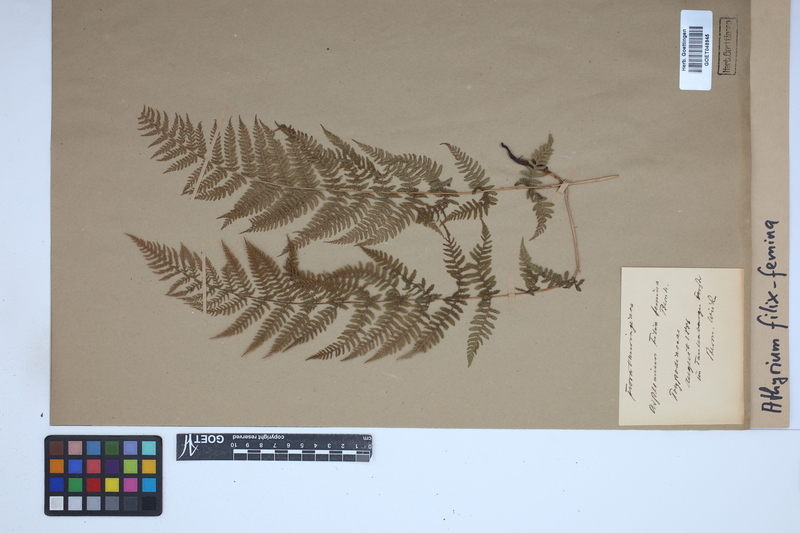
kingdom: Plantae
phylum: Tracheophyta
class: Polypodiopsida
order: Polypodiales
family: Athyriaceae
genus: Athyrium
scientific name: Athyrium filix-femina
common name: Lady fern
